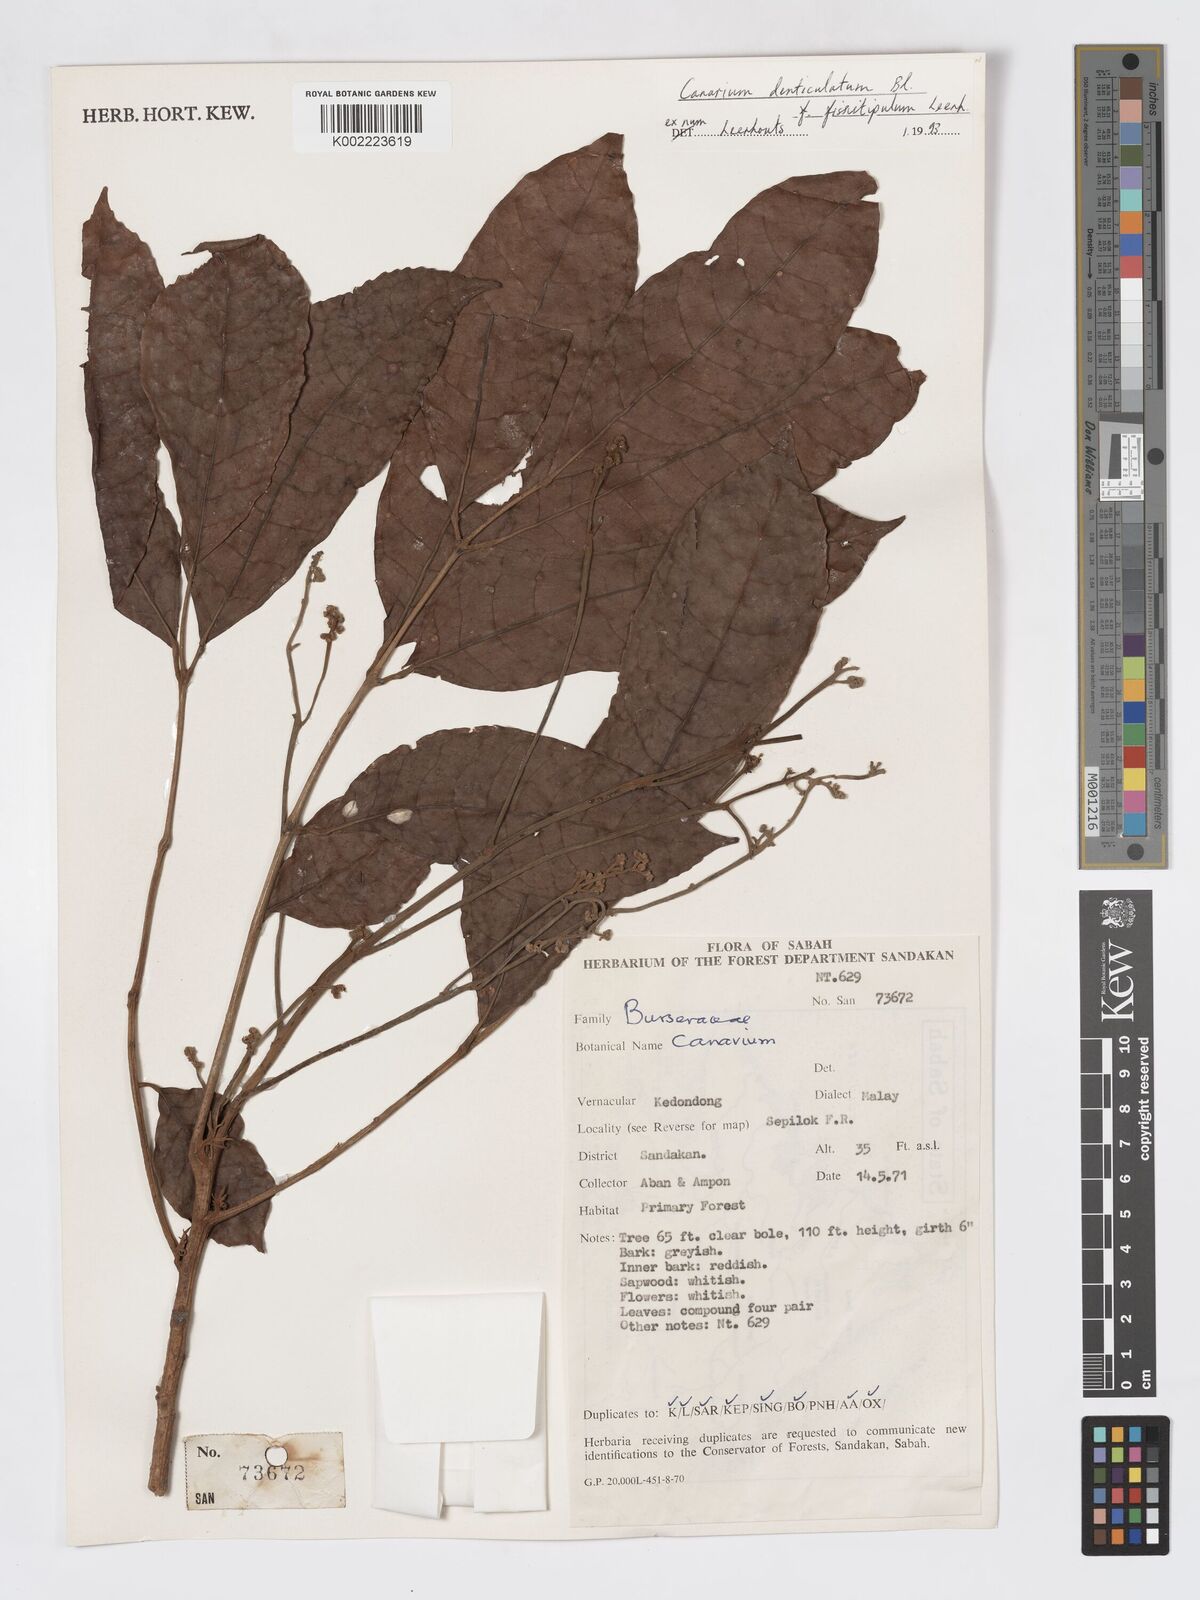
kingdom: Plantae
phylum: Tracheophyta
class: Magnoliopsida
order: Sapindales
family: Burseraceae
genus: Canarium
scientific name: Canarium denticulatum
